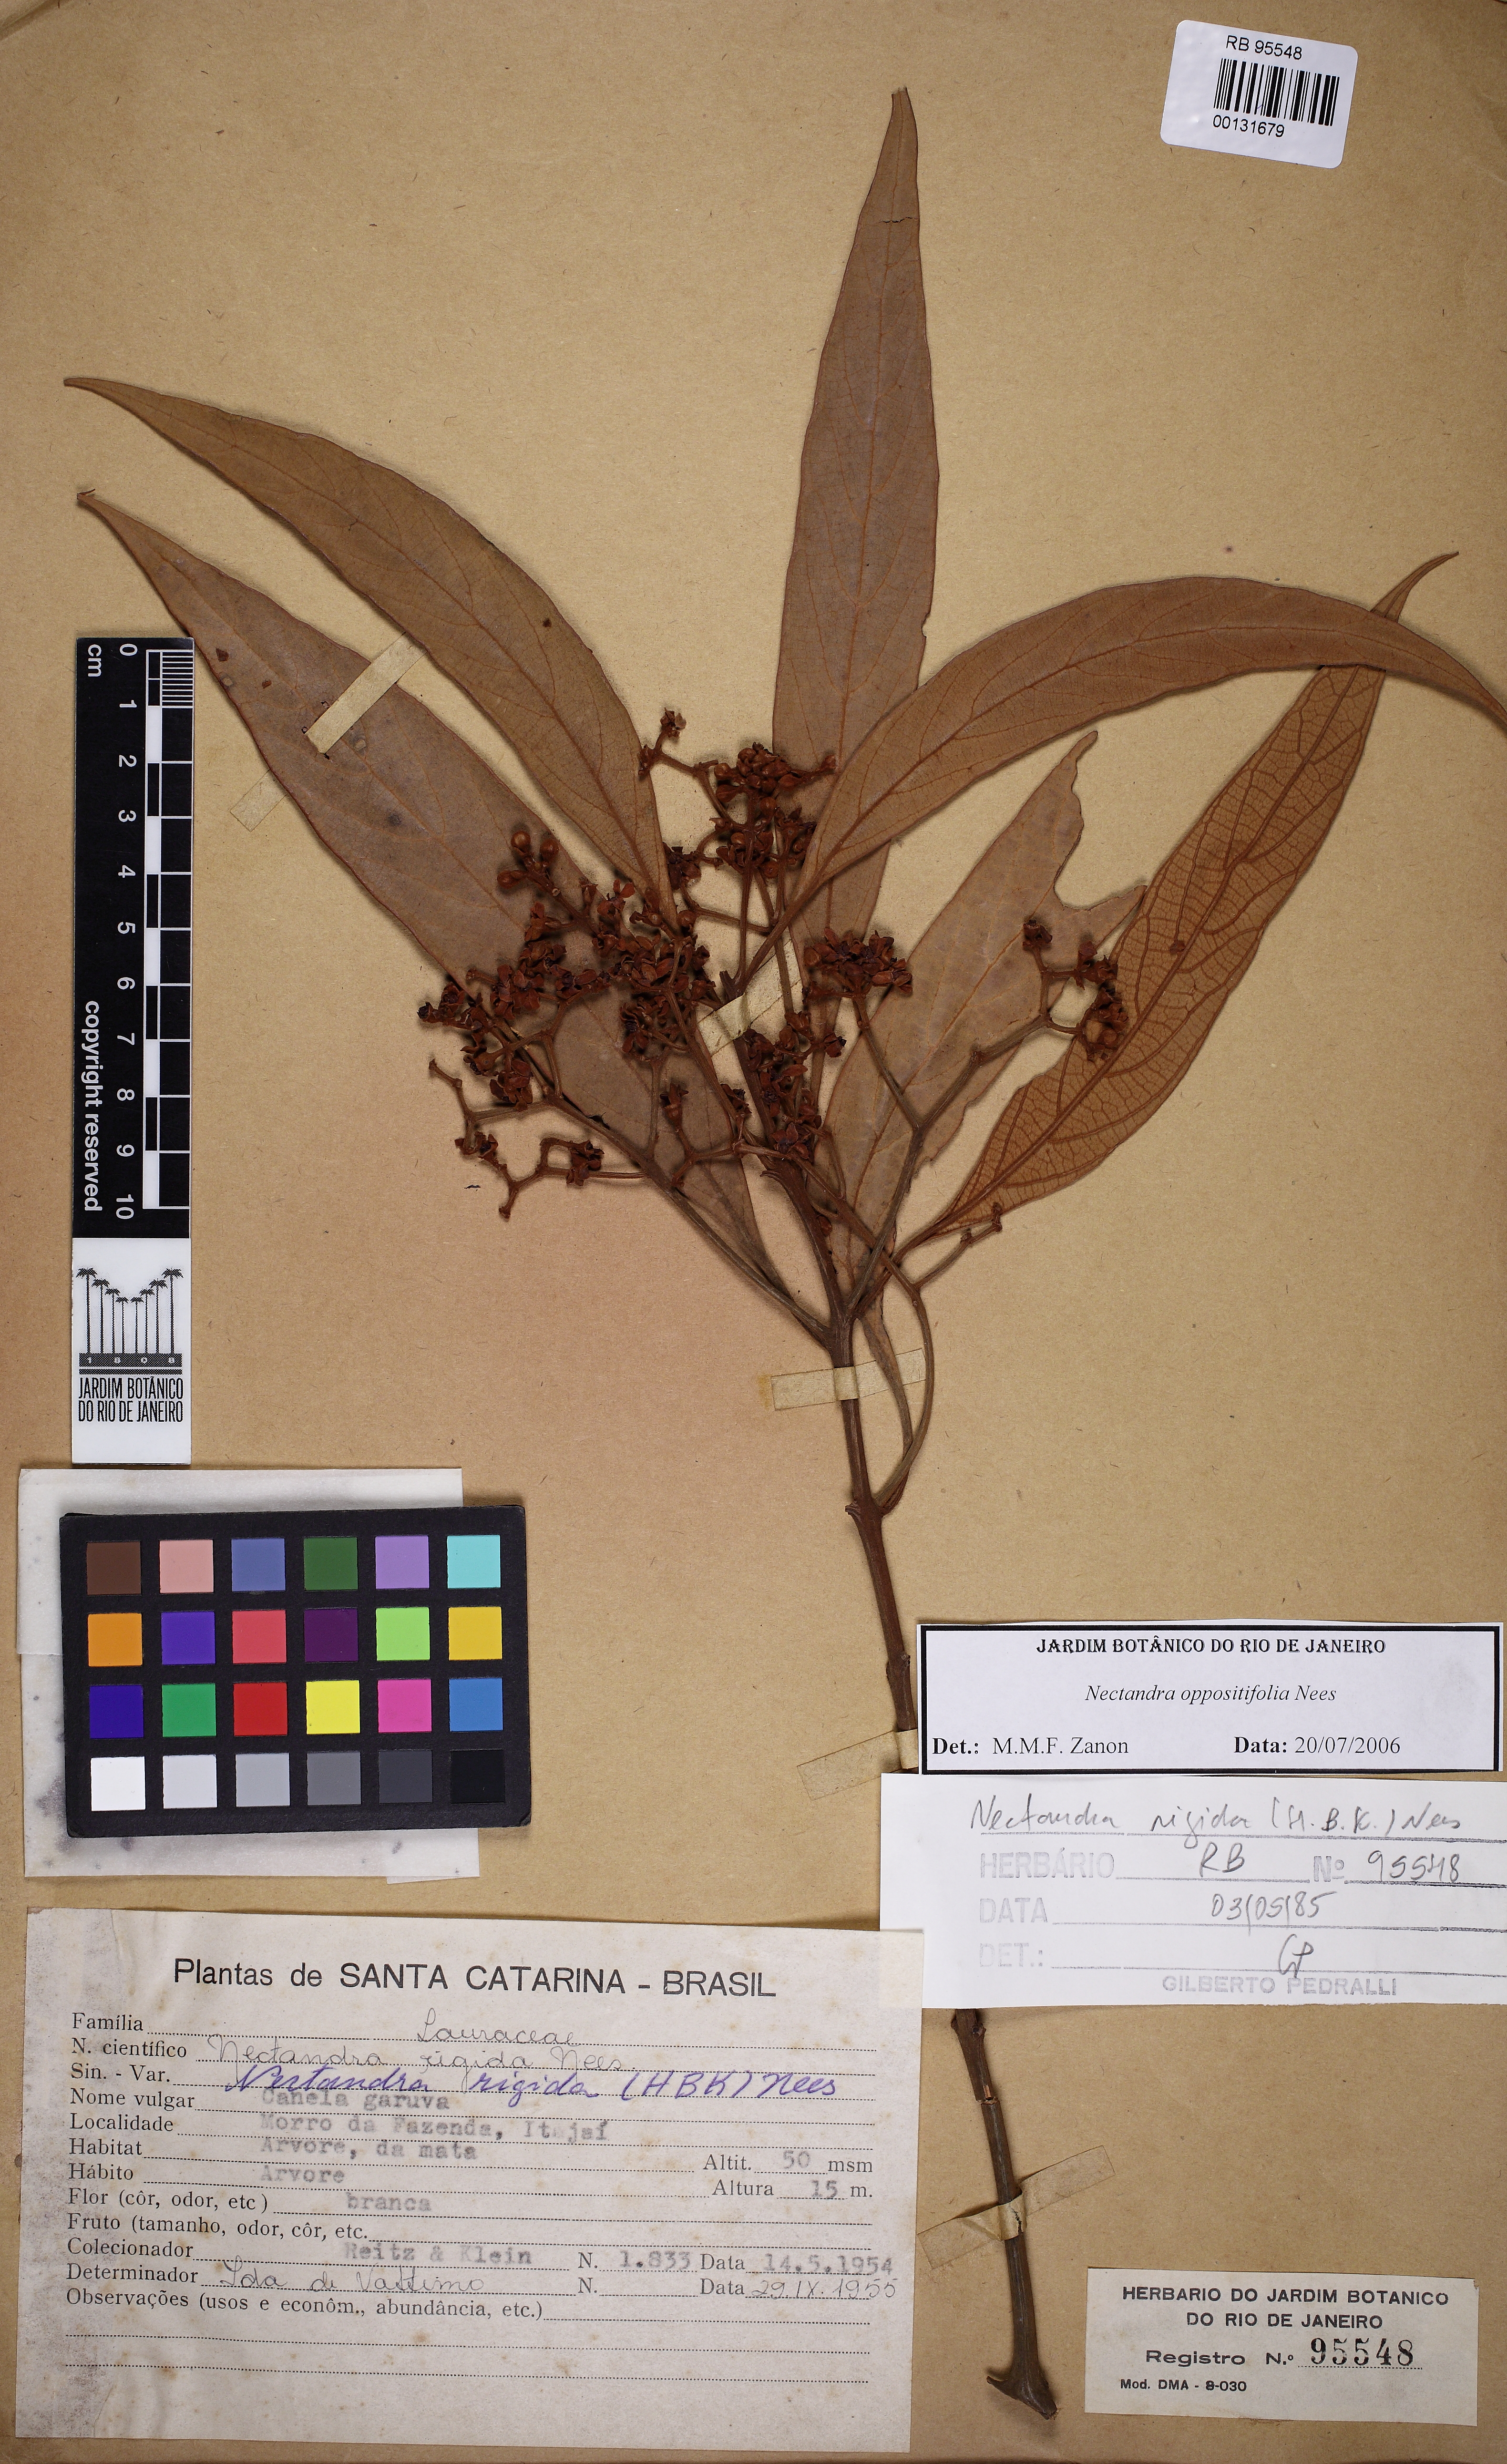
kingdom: Plantae
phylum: Tracheophyta
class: Magnoliopsida
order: Laurales
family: Lauraceae
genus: Nectandra
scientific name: Nectandra oppositifolia
